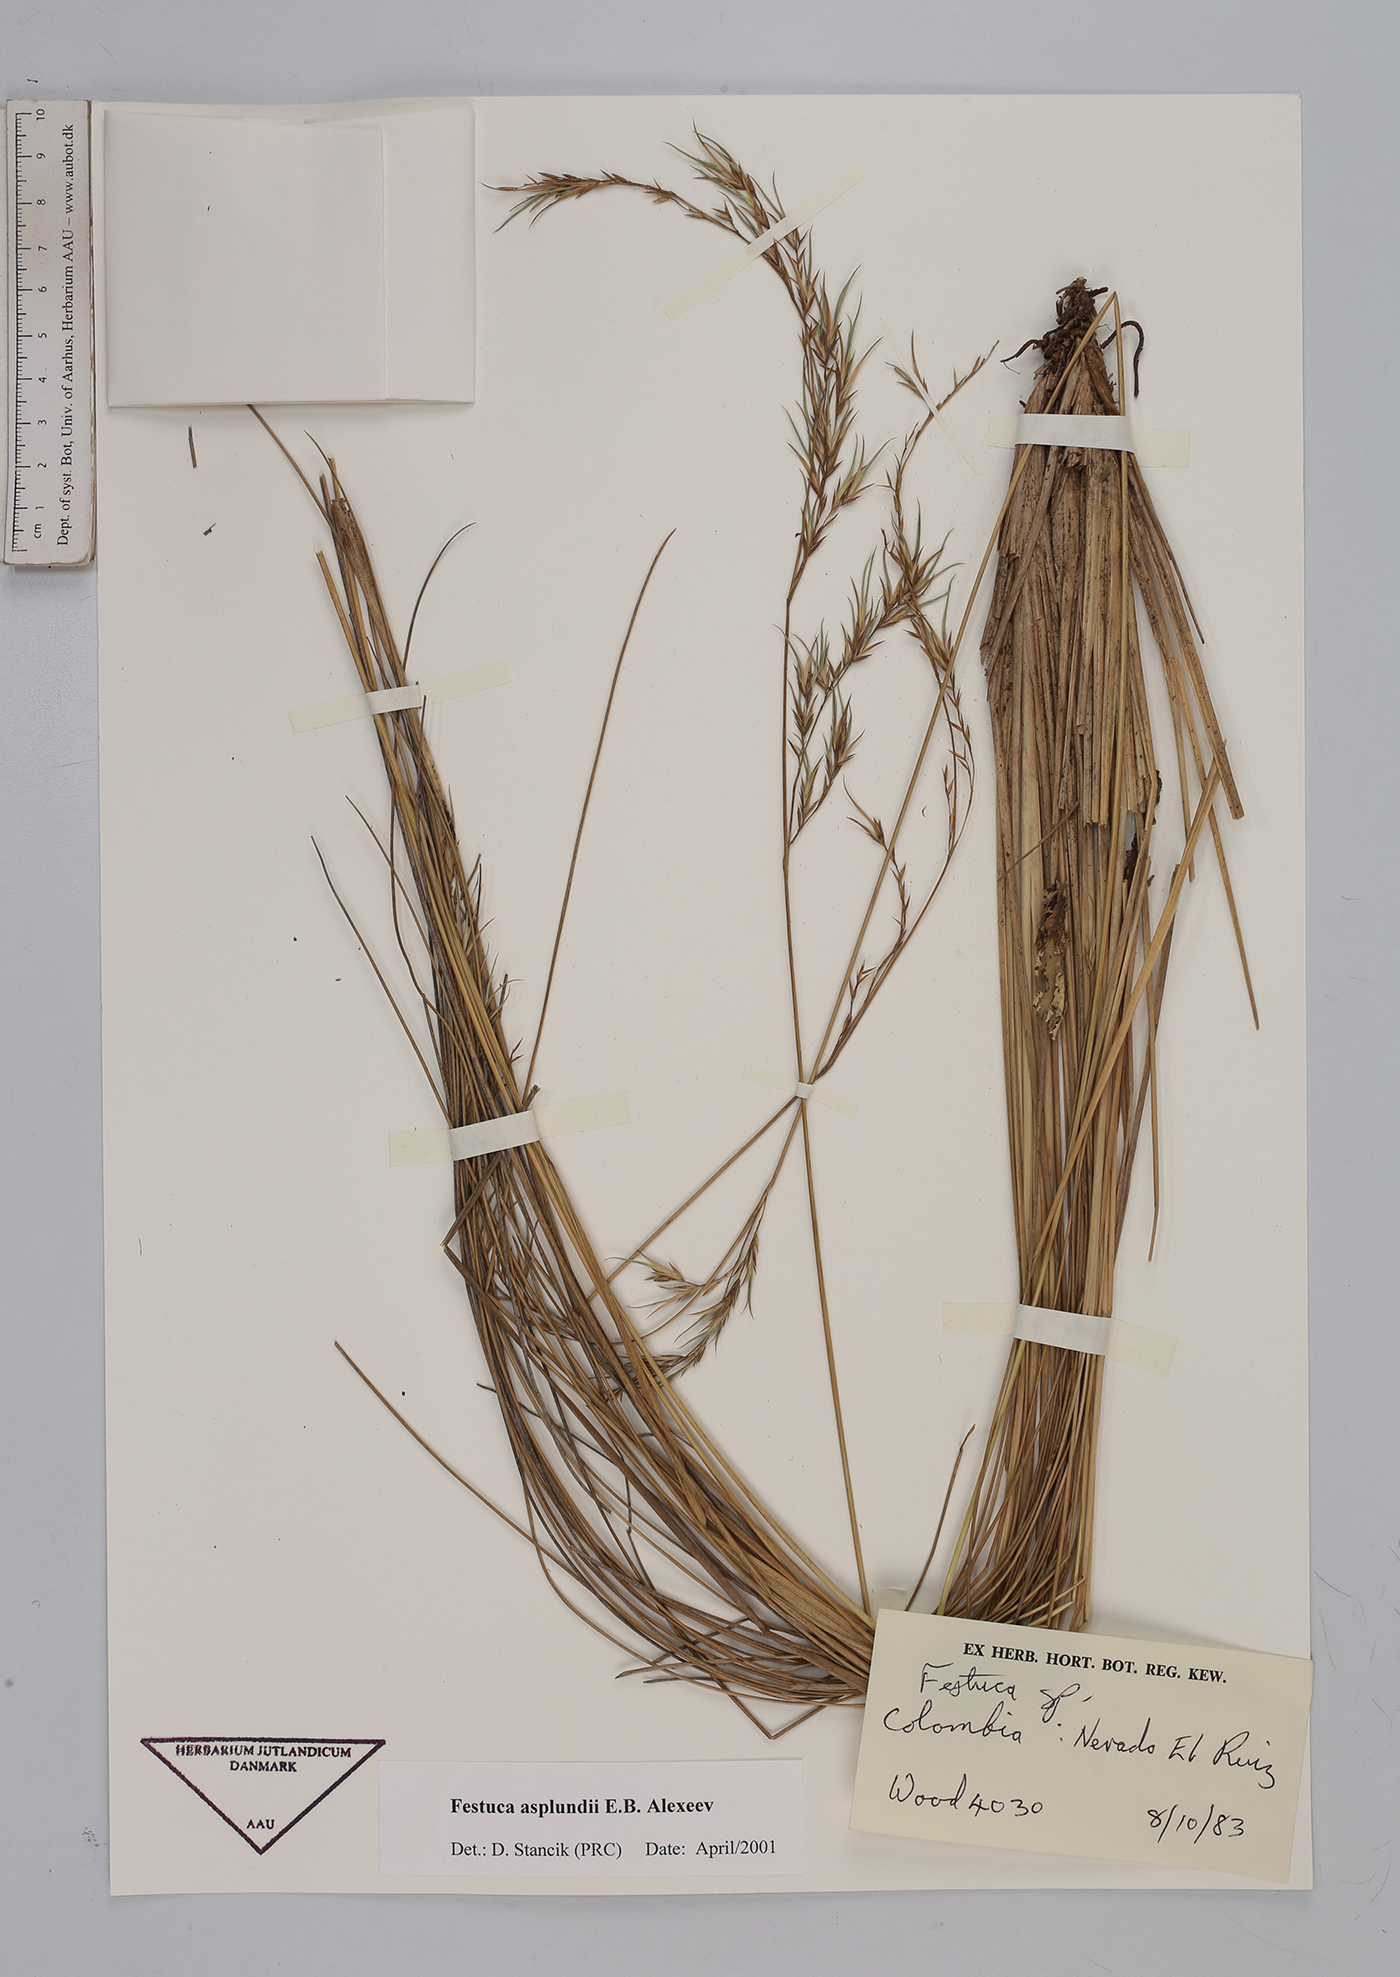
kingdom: Plantae
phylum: Tracheophyta
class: Liliopsida
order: Poales
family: Poaceae
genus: Festuca
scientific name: Festuca asplundii
